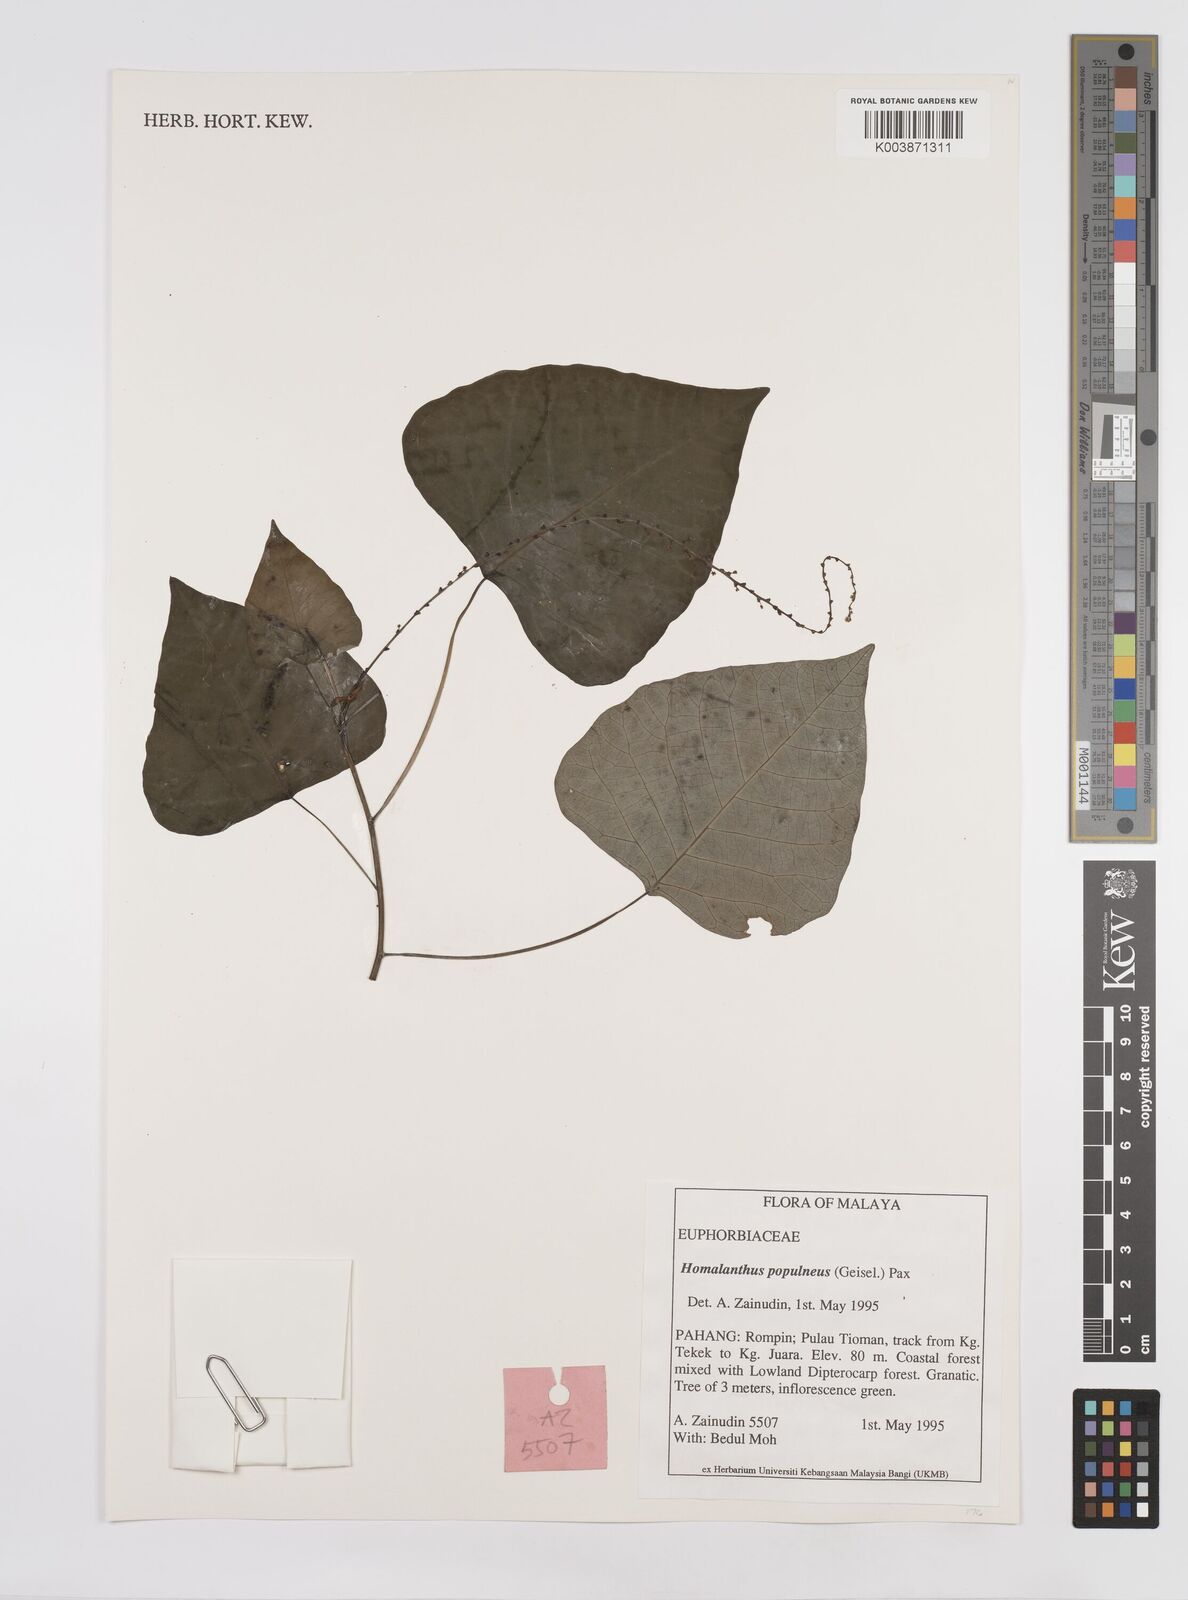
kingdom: Plantae
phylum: Tracheophyta
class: Magnoliopsida
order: Malpighiales
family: Euphorbiaceae
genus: Homalanthus
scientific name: Homalanthus populneus
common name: Spurge
